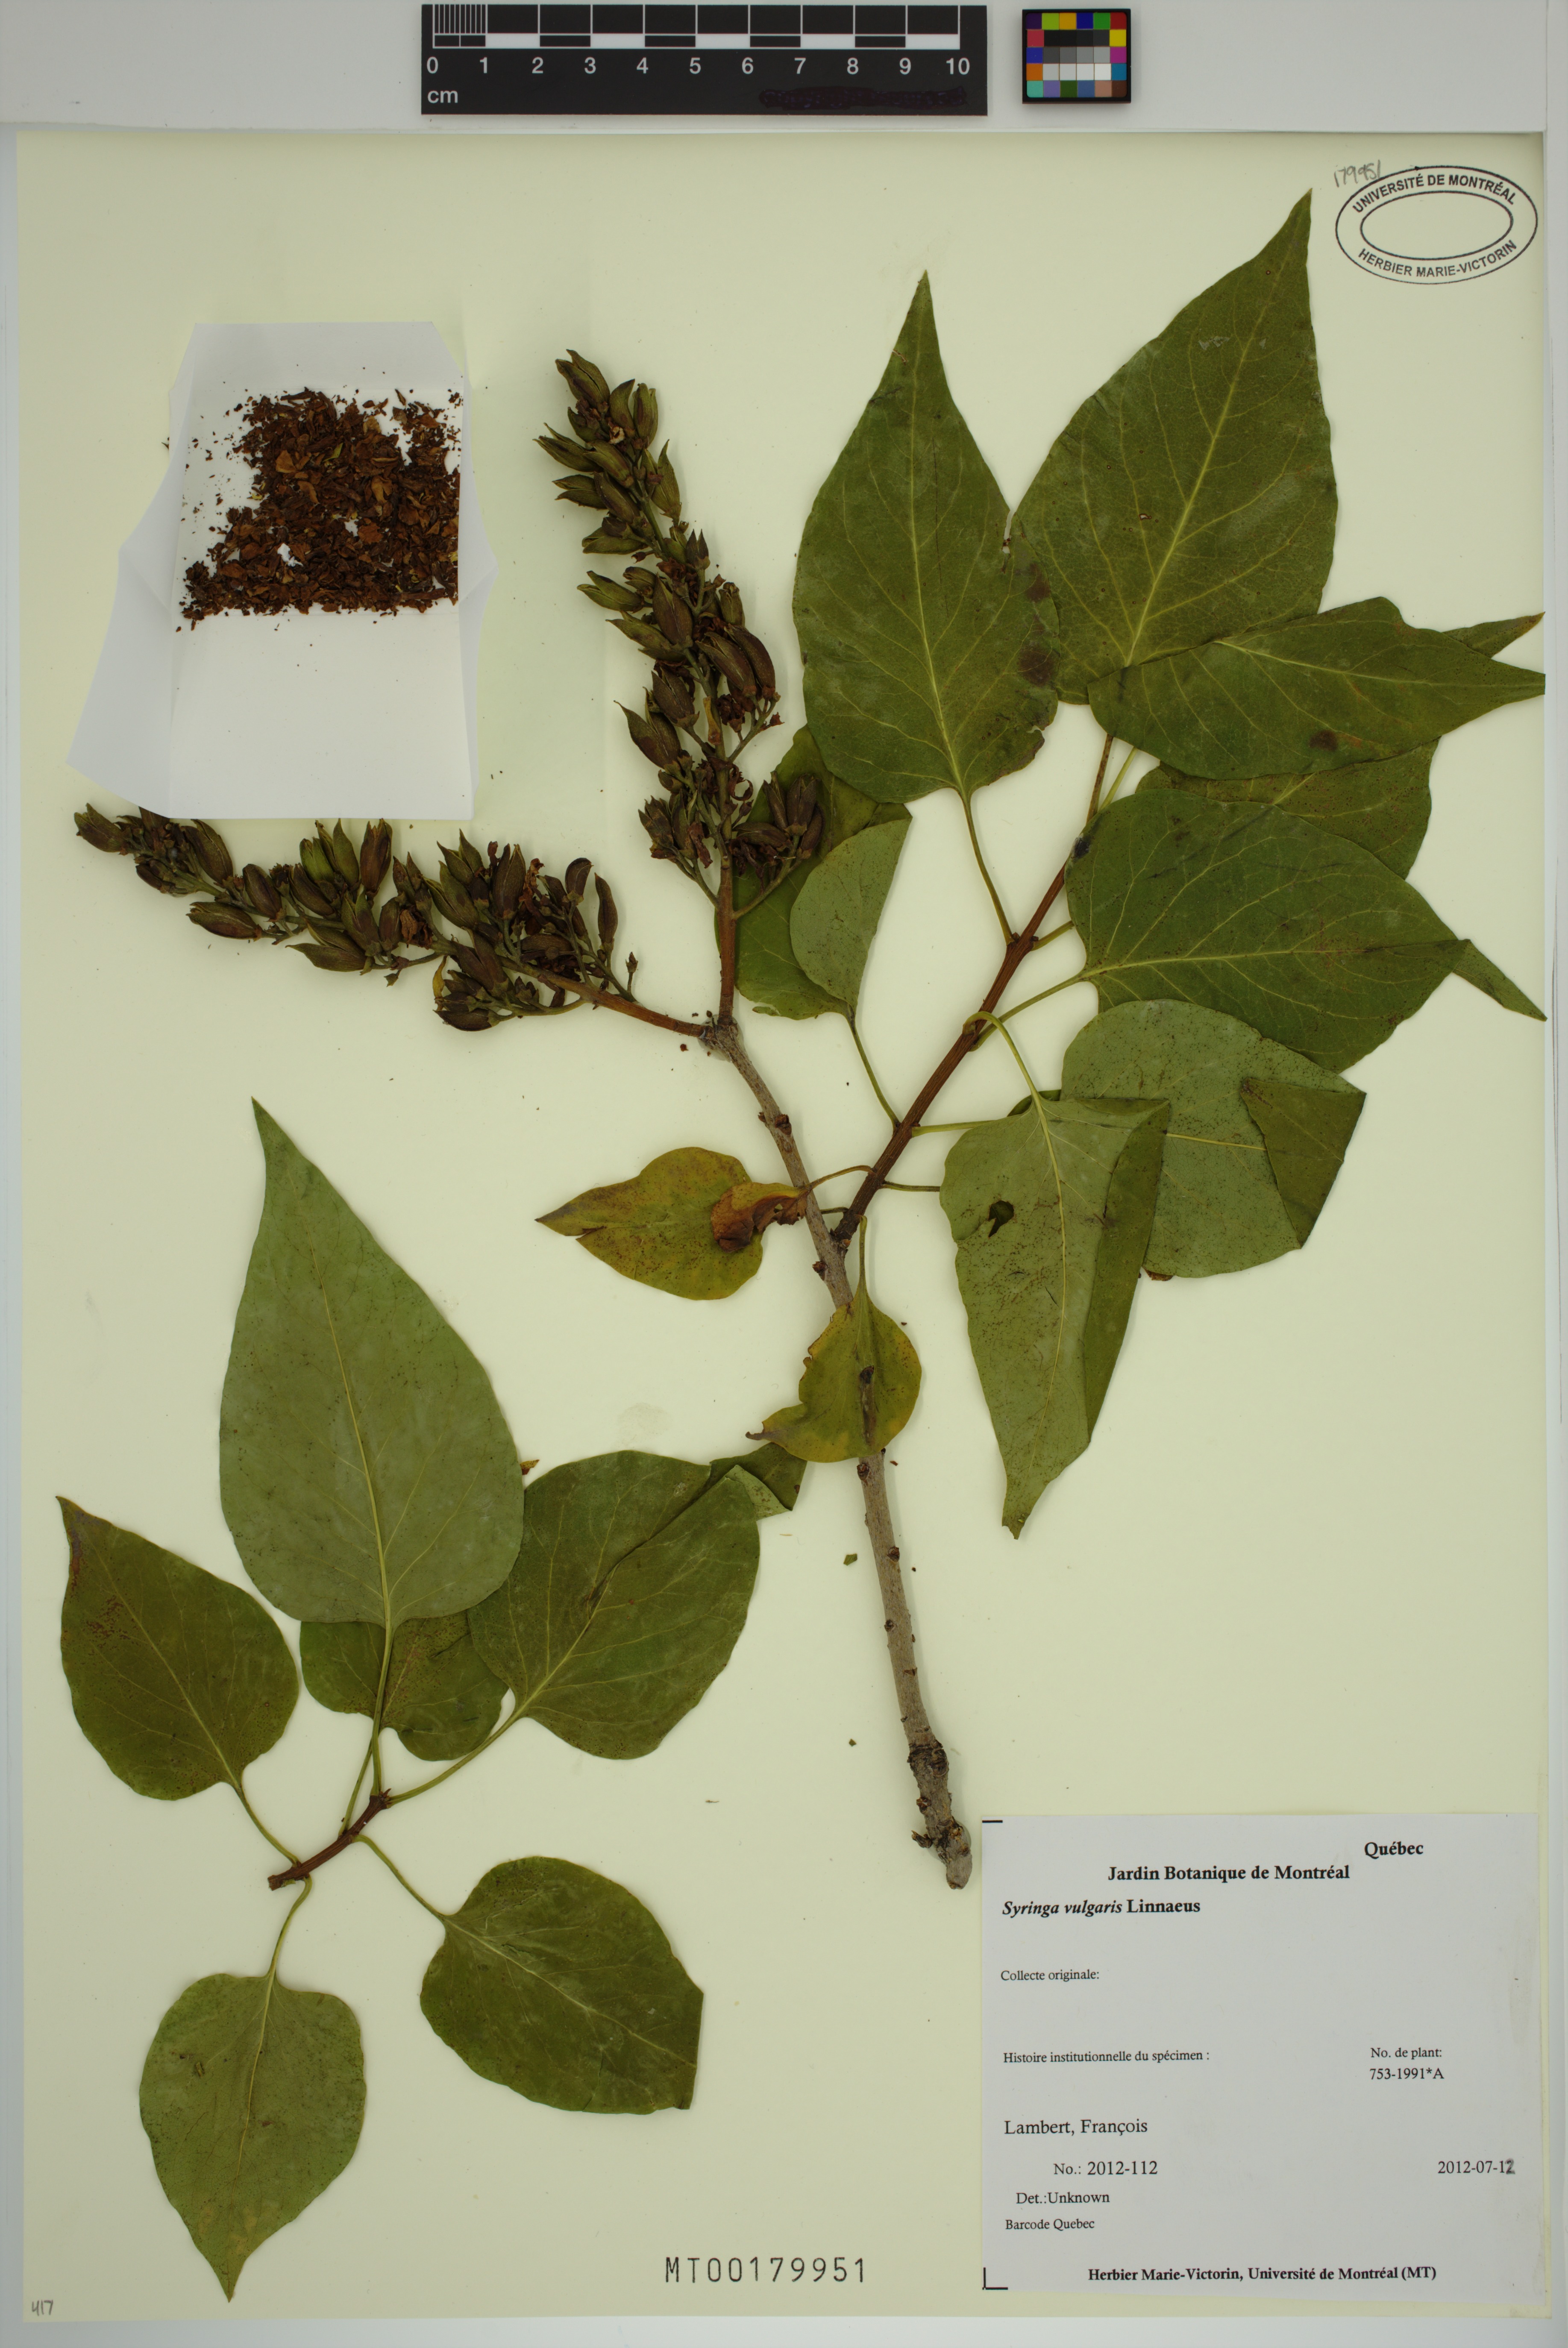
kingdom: Plantae
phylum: Tracheophyta
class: Magnoliopsida
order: Lamiales
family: Oleaceae
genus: Syringa
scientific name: Syringa vulgaris
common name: Common lilac
